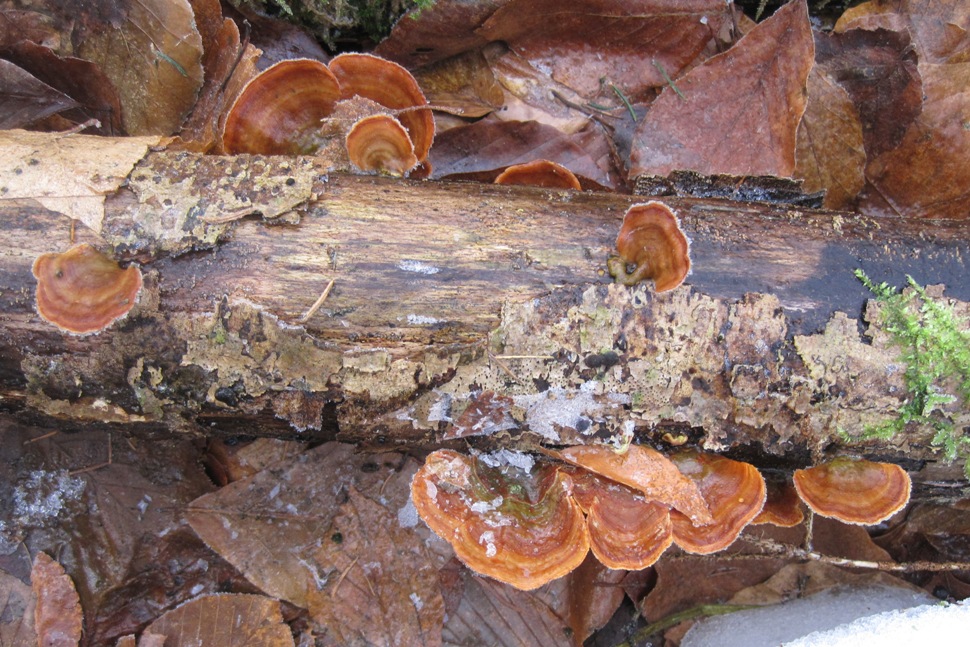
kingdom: Fungi
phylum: Basidiomycota
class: Agaricomycetes
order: Russulales
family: Stereaceae
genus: Stereum
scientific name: Stereum subtomentosum
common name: smuk lædersvamp
